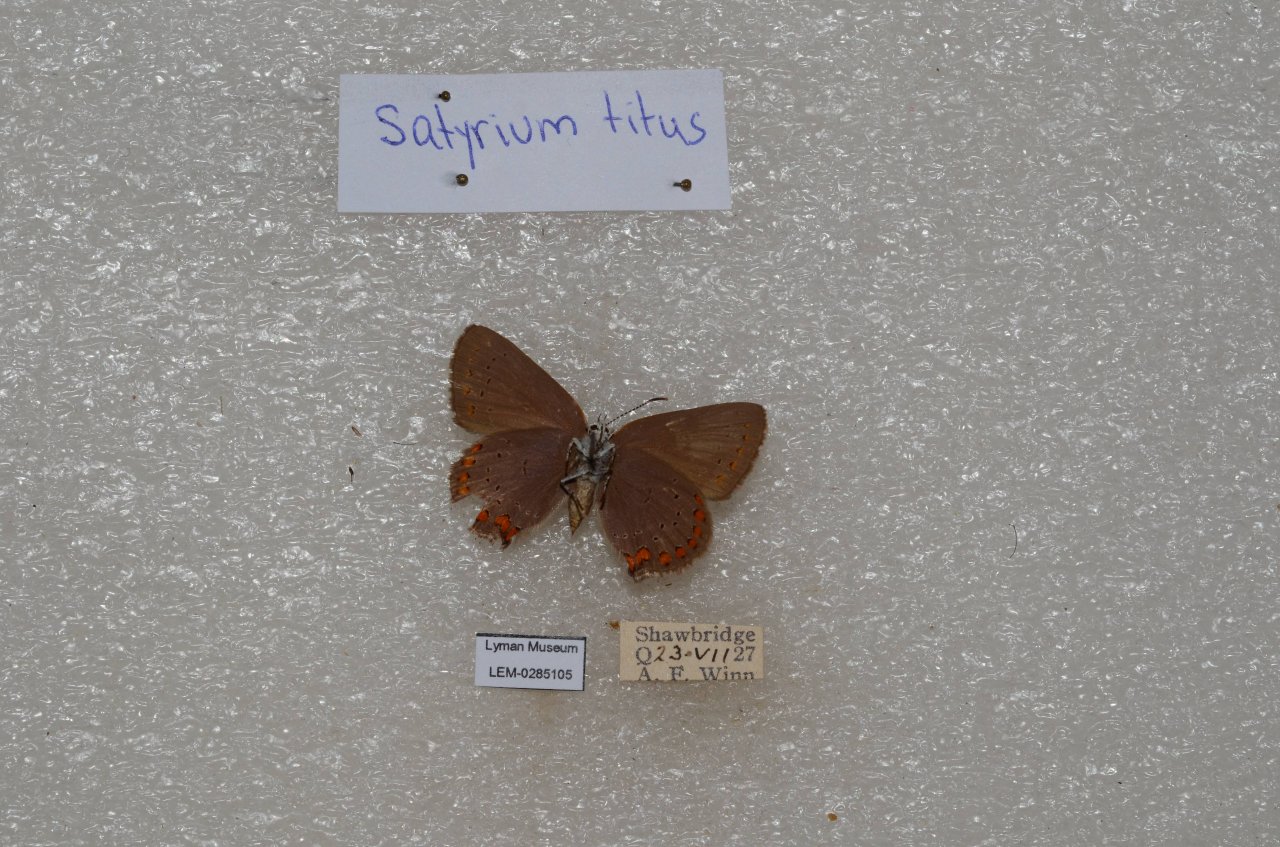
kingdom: Animalia
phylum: Arthropoda
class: Insecta
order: Lepidoptera
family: Lycaenidae
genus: Harkenclenus
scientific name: Harkenclenus titus
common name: Coral Hairstreak
